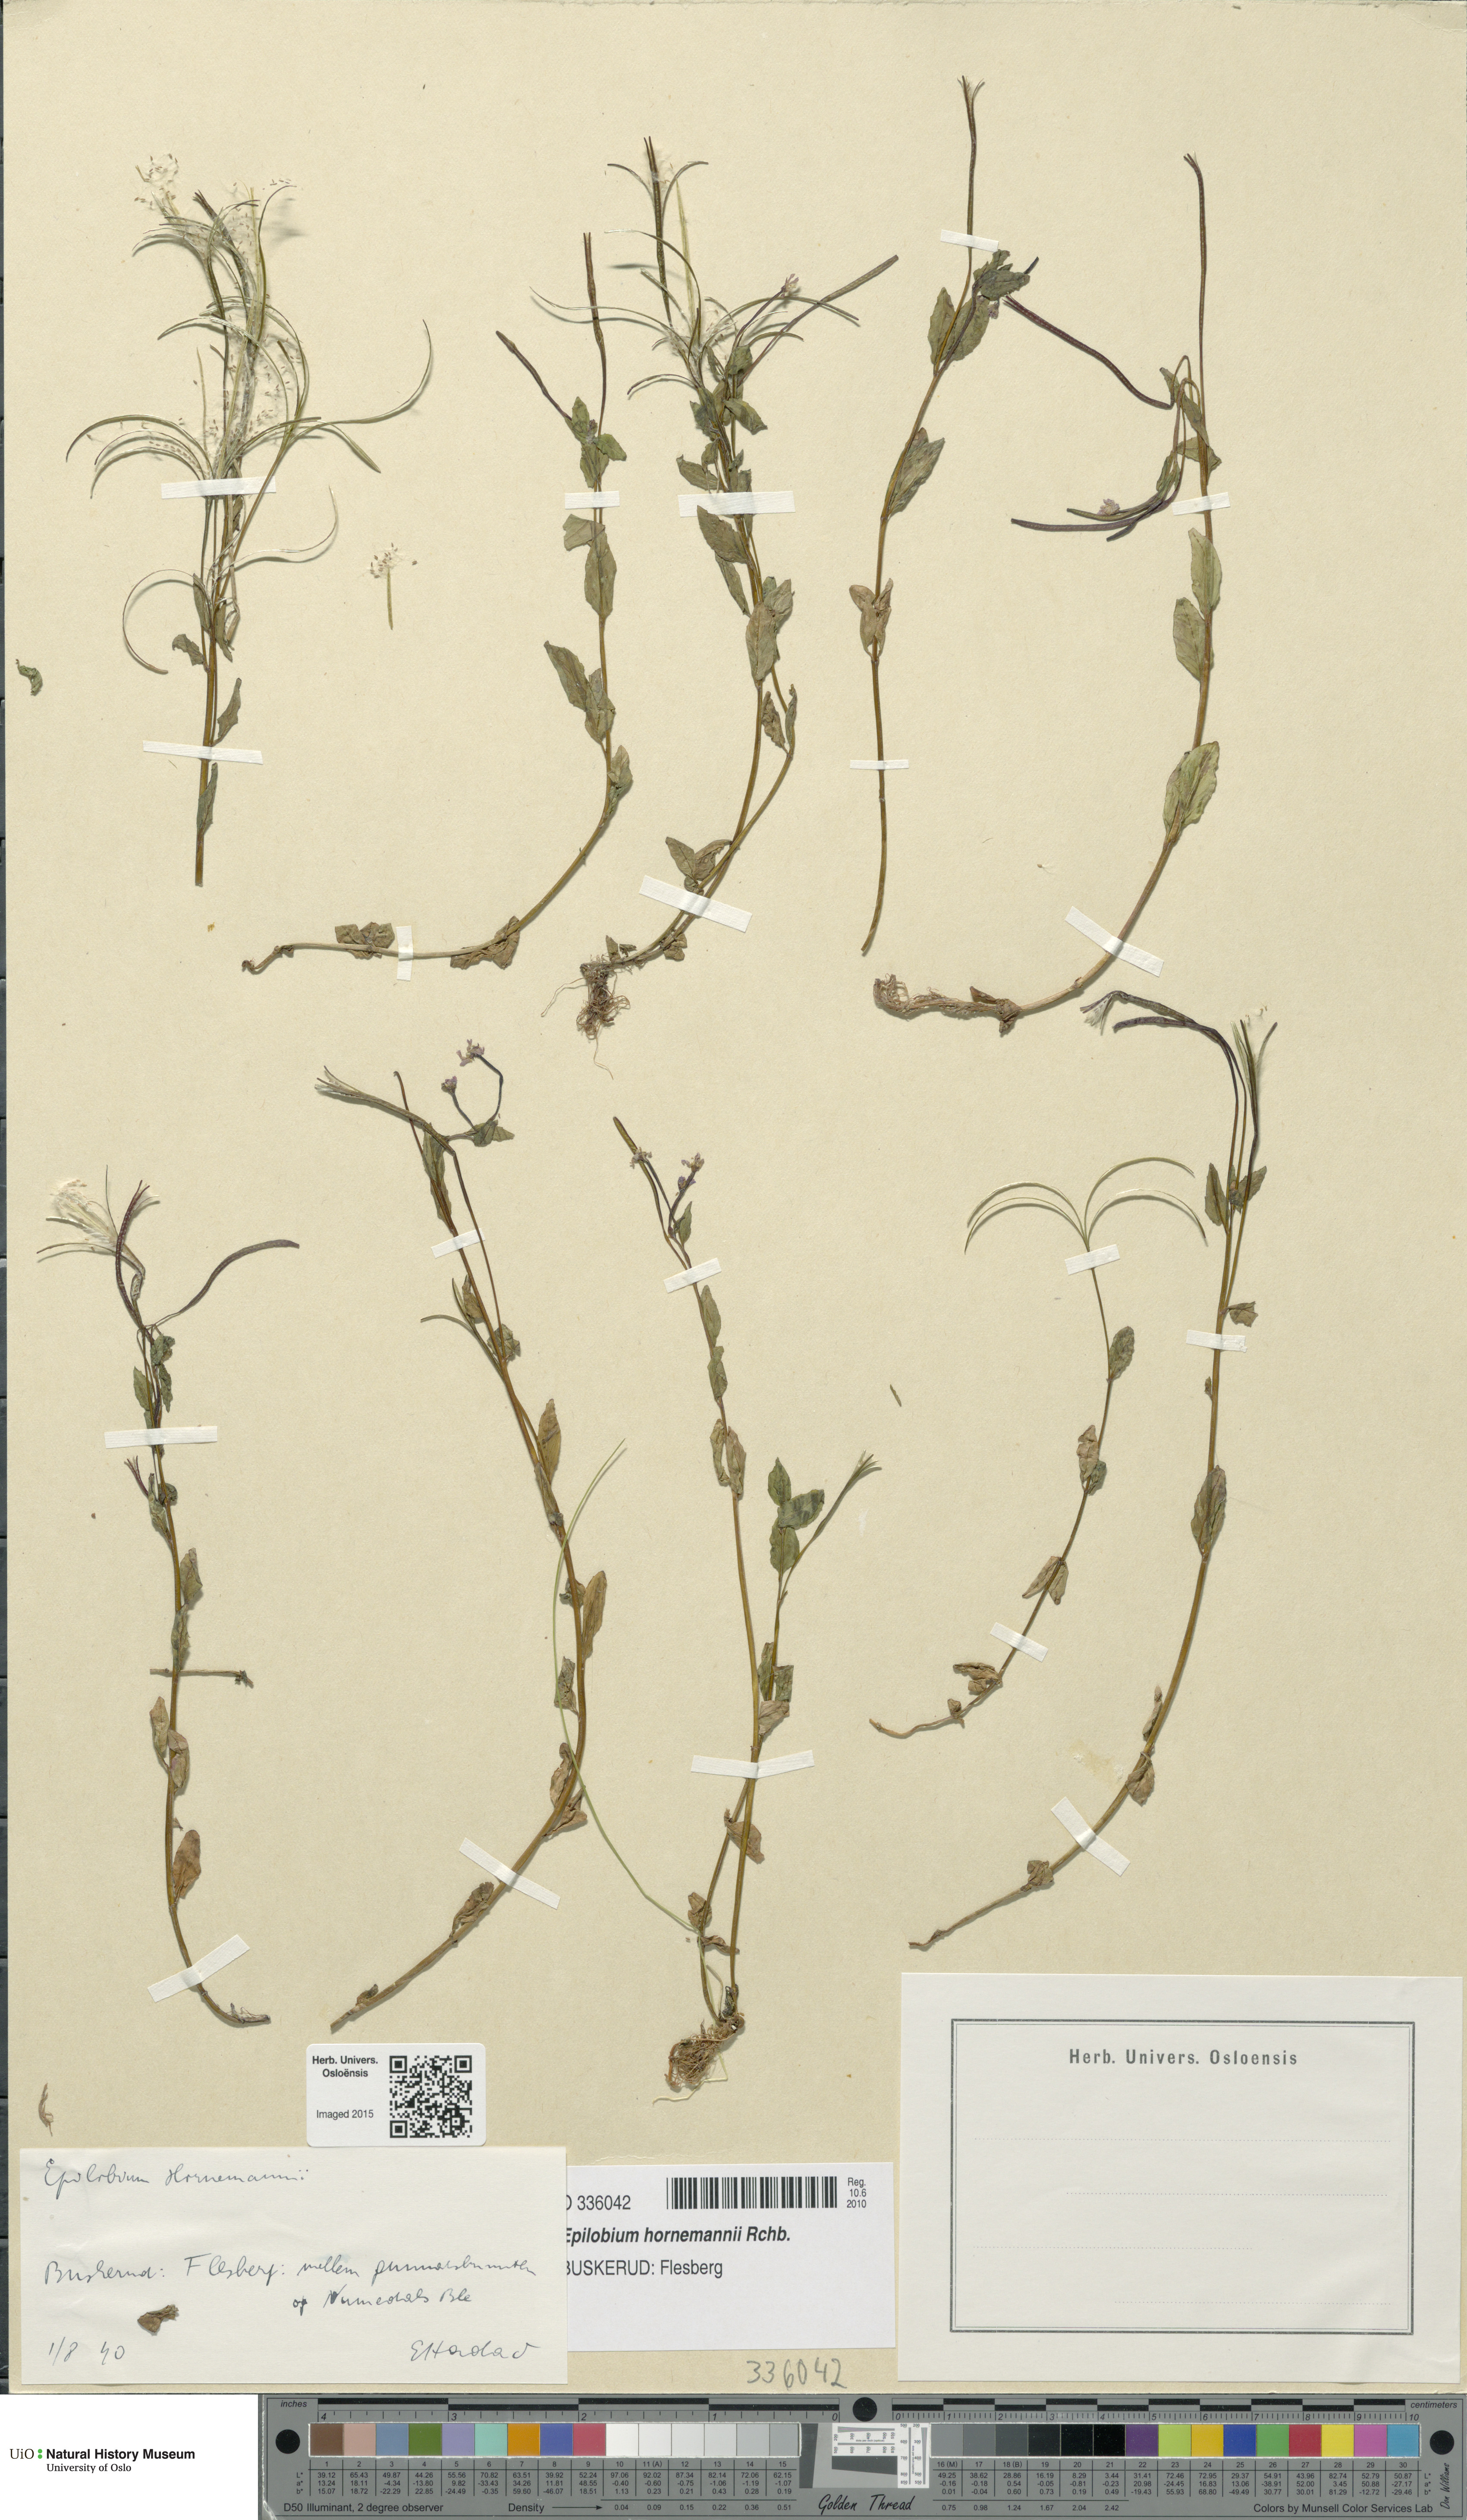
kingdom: Plantae
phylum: Tracheophyta
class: Magnoliopsida
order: Myrtales
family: Onagraceae
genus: Epilobium
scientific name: Epilobium hornemannii
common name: Hornemann's willowherb
